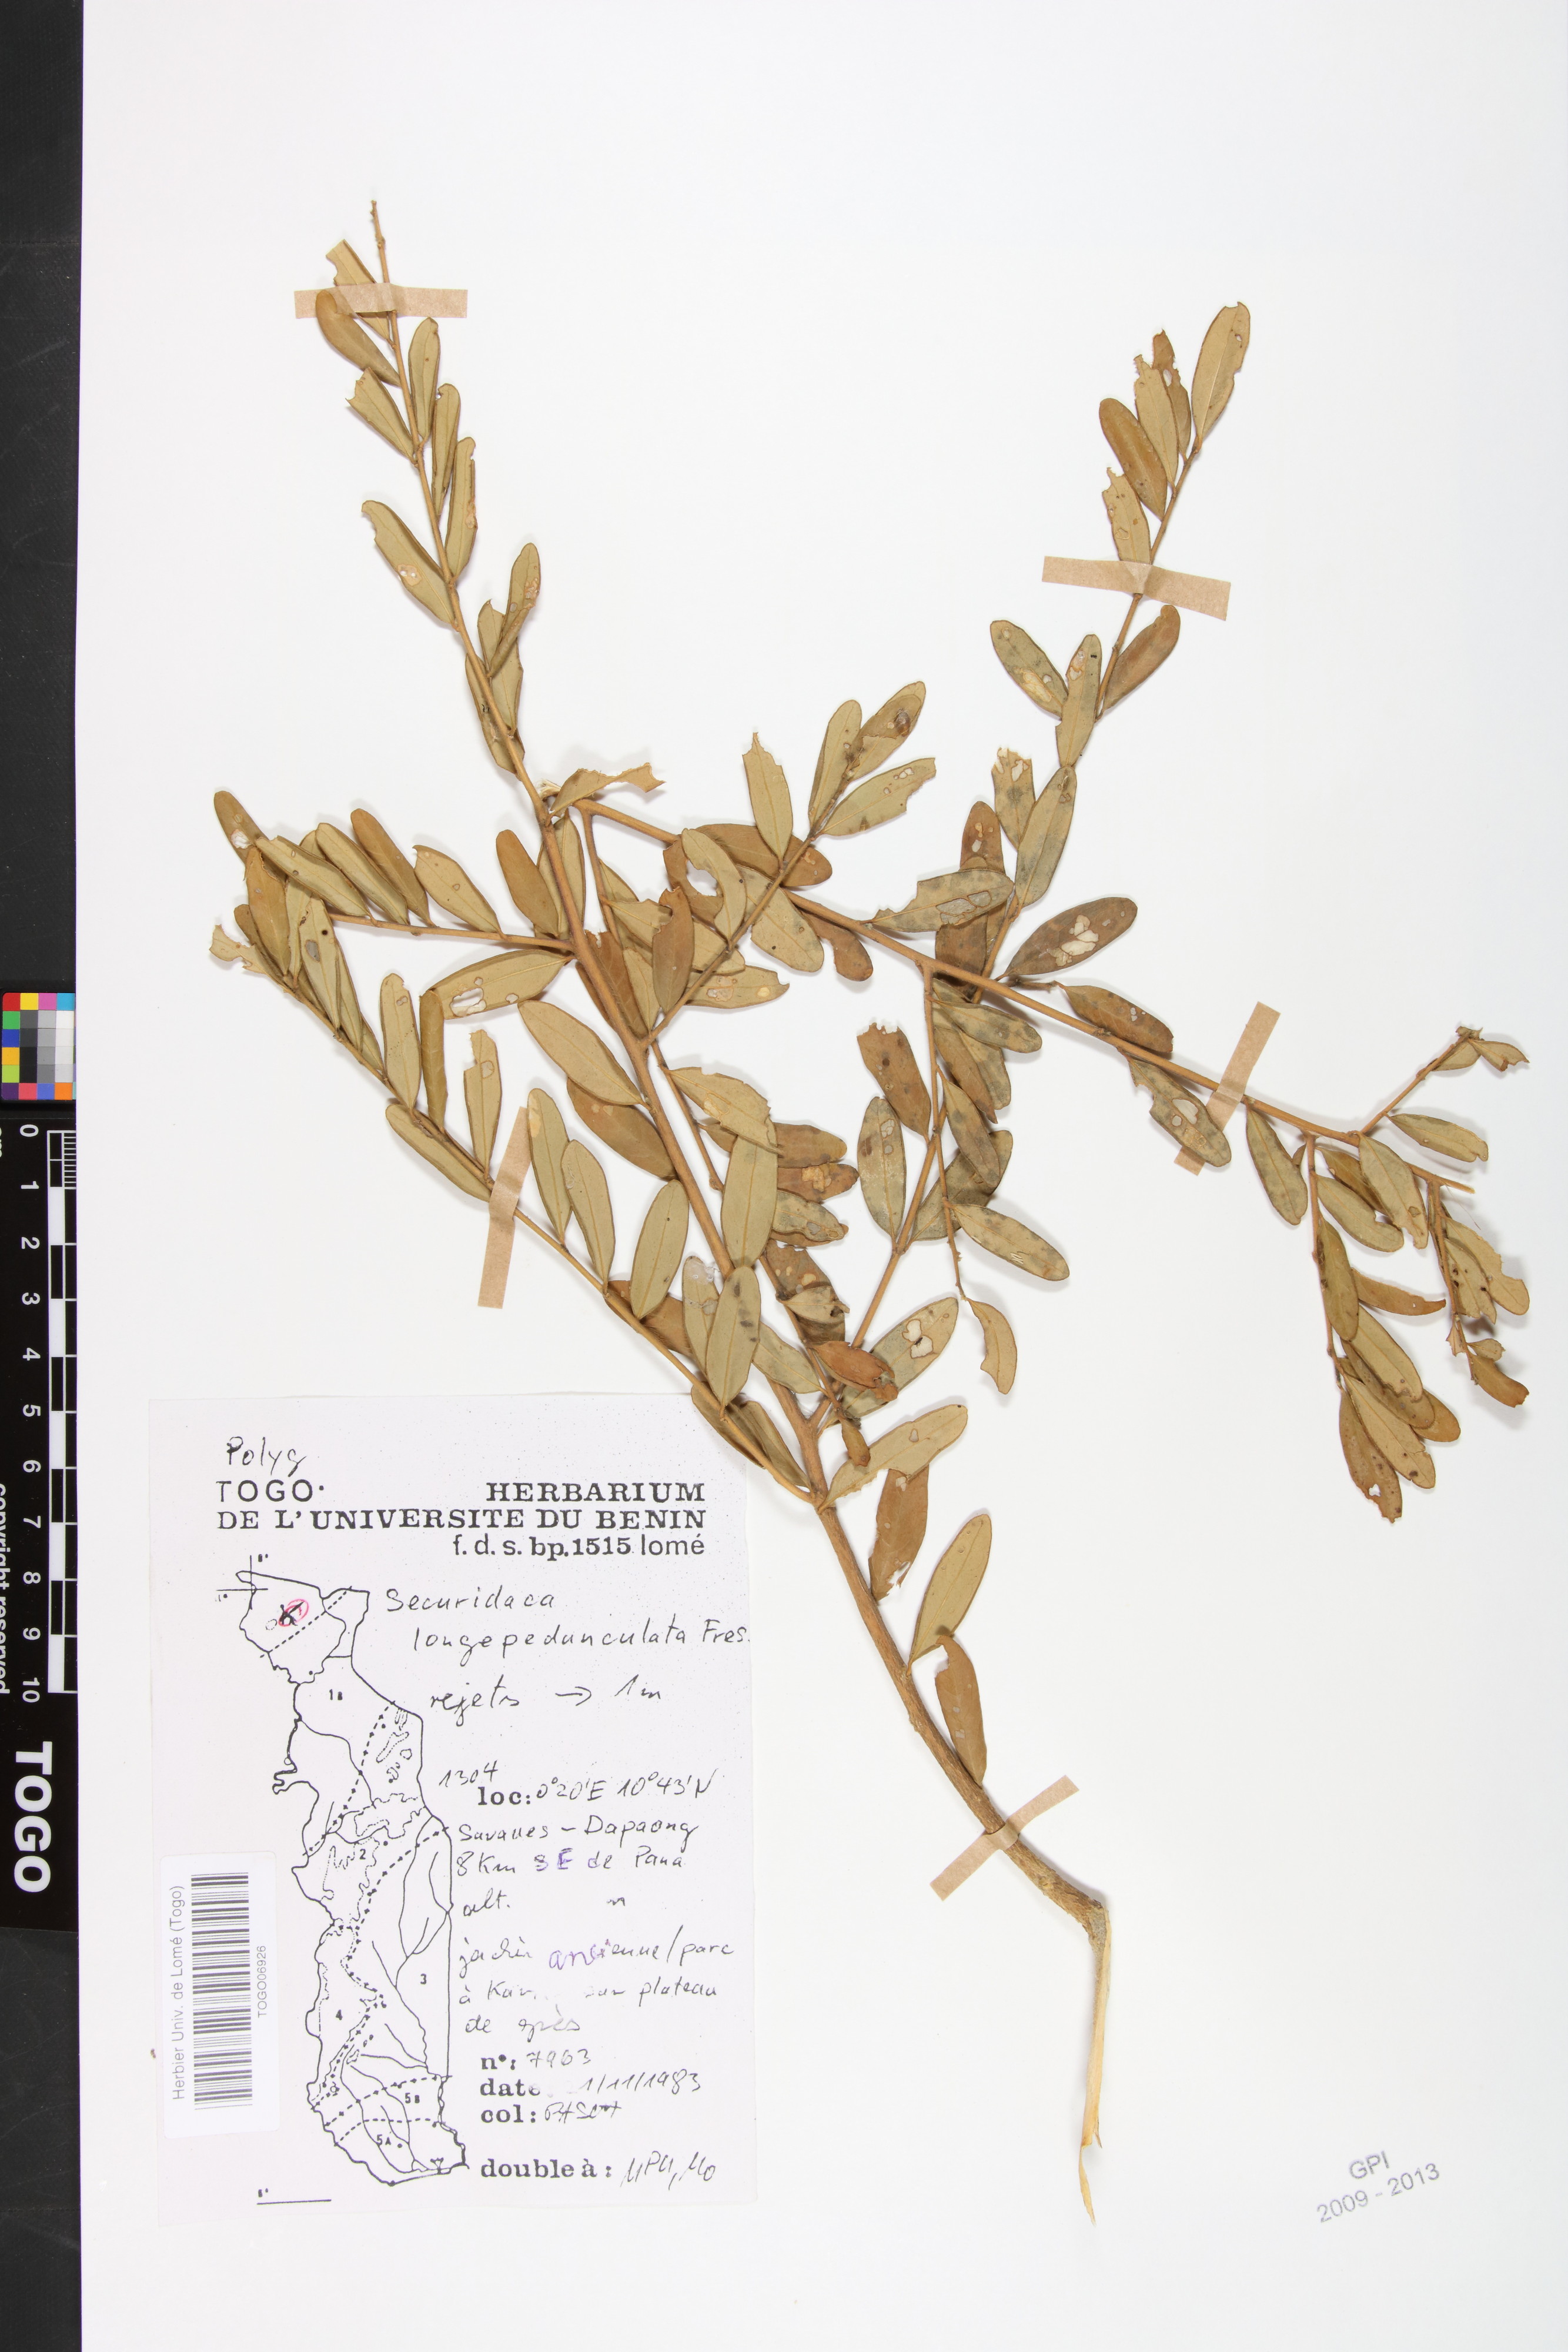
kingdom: Plantae
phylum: Tracheophyta
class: Magnoliopsida
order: Fabales
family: Polygalaceae
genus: Securidaca
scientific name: Securidaca longepedunculata
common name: Violet tree
